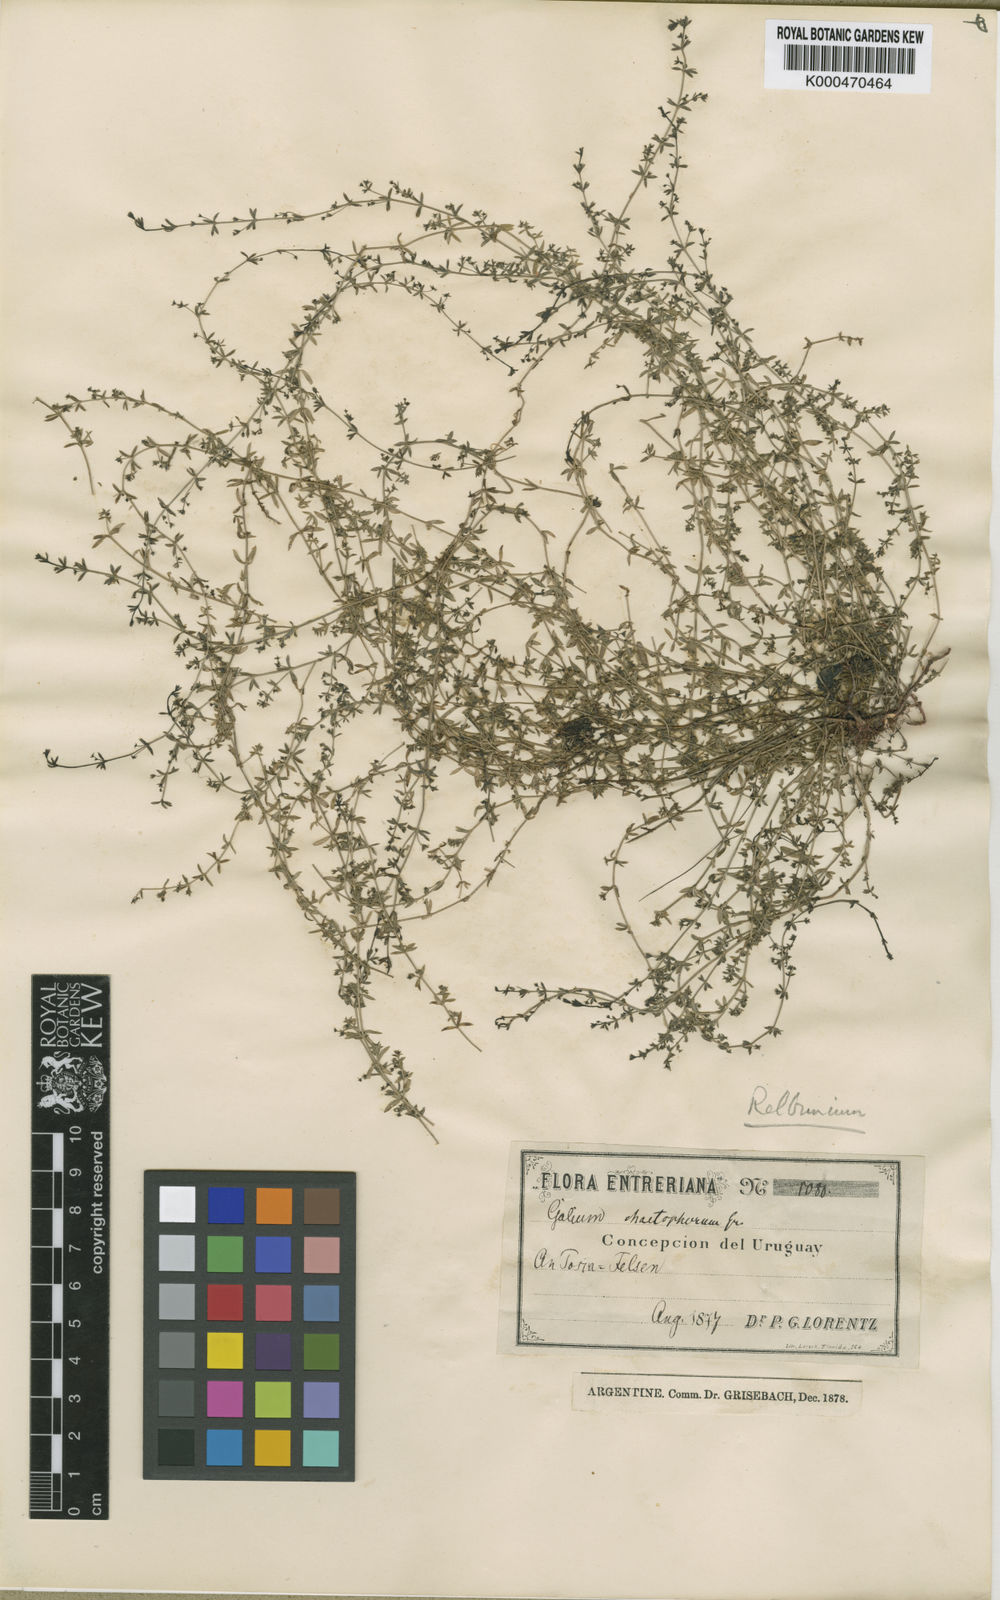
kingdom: Plantae
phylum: Tracheophyta
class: Magnoliopsida
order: Gentianales
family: Rubiaceae
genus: Galium
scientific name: Galium richardianum
